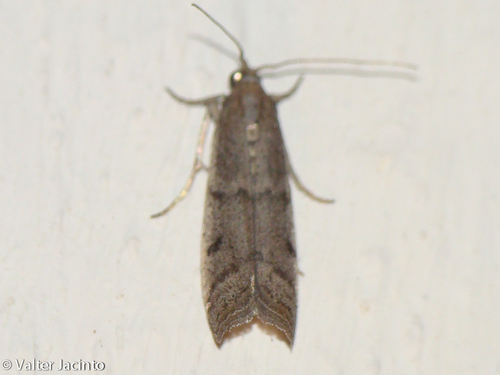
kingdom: Animalia
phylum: Arthropoda
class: Insecta
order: Lepidoptera
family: Pyralidae
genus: Ephestia
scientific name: Ephestia
